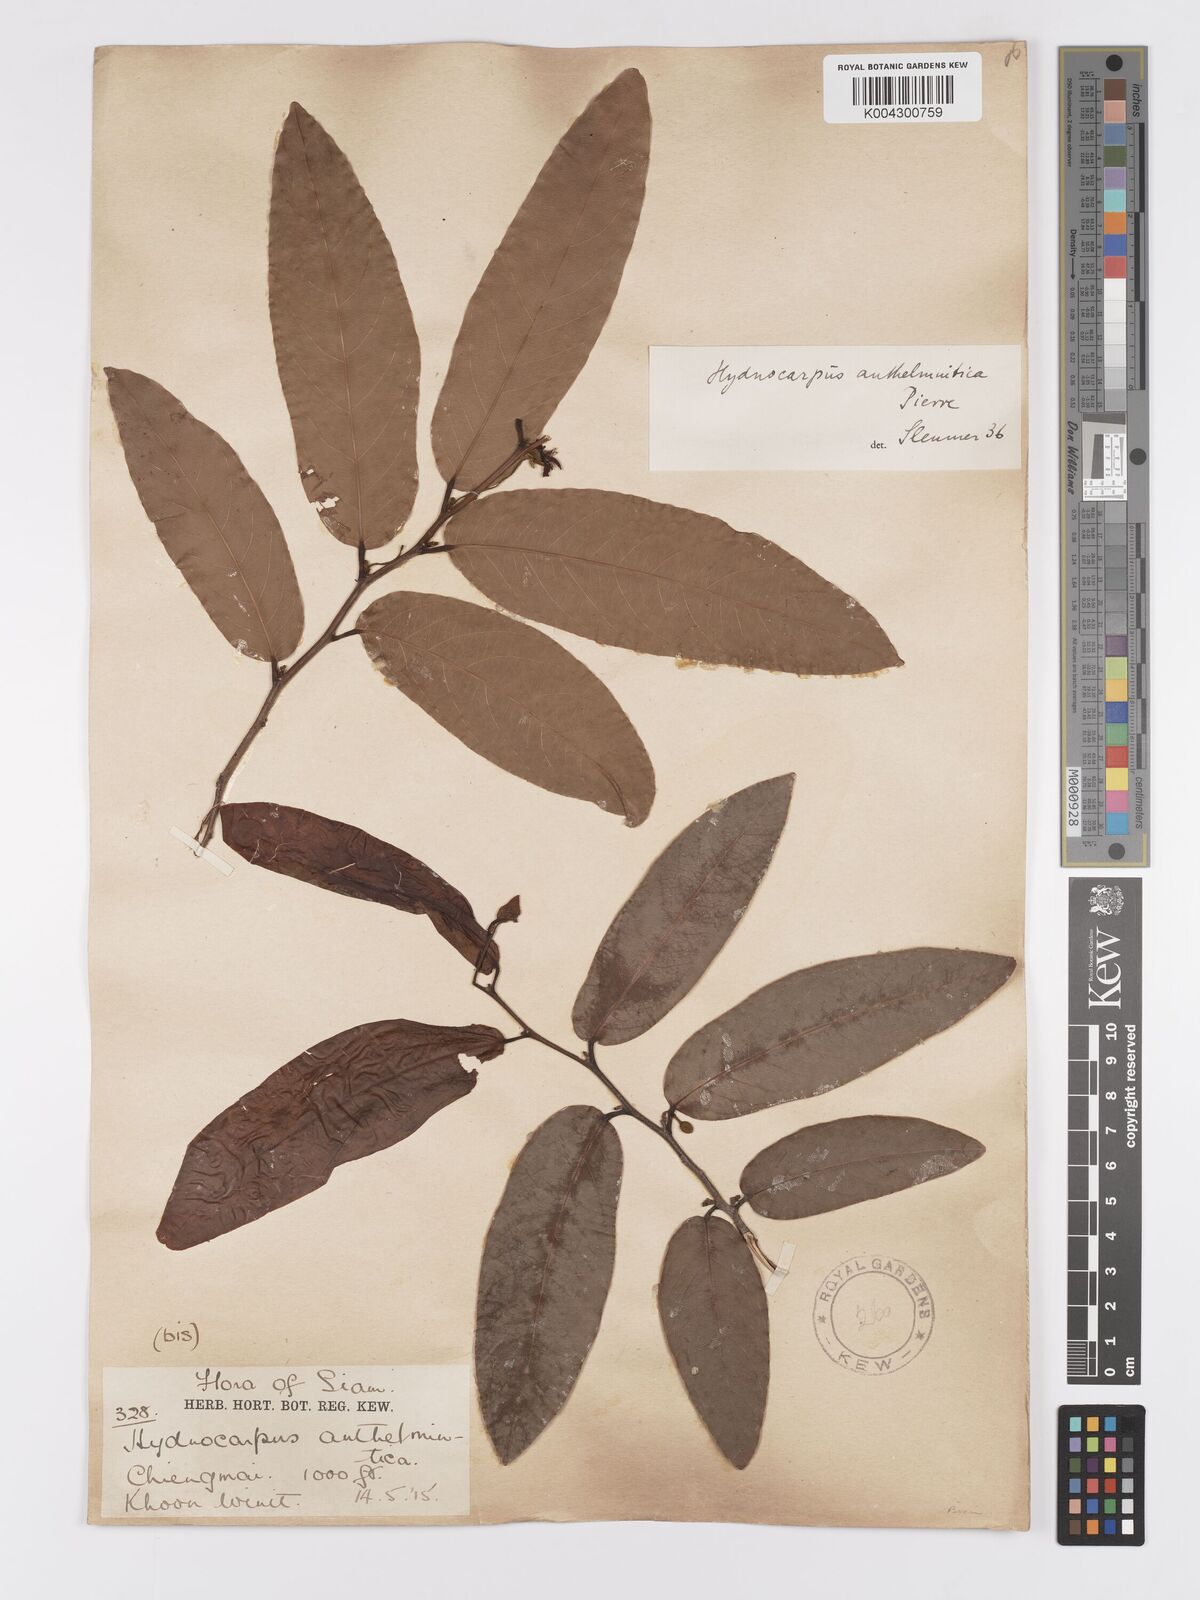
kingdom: Plantae
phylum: Tracheophyta
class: Magnoliopsida
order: Malpighiales
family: Achariaceae
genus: Hydnocarpus
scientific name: Hydnocarpus castaneus
